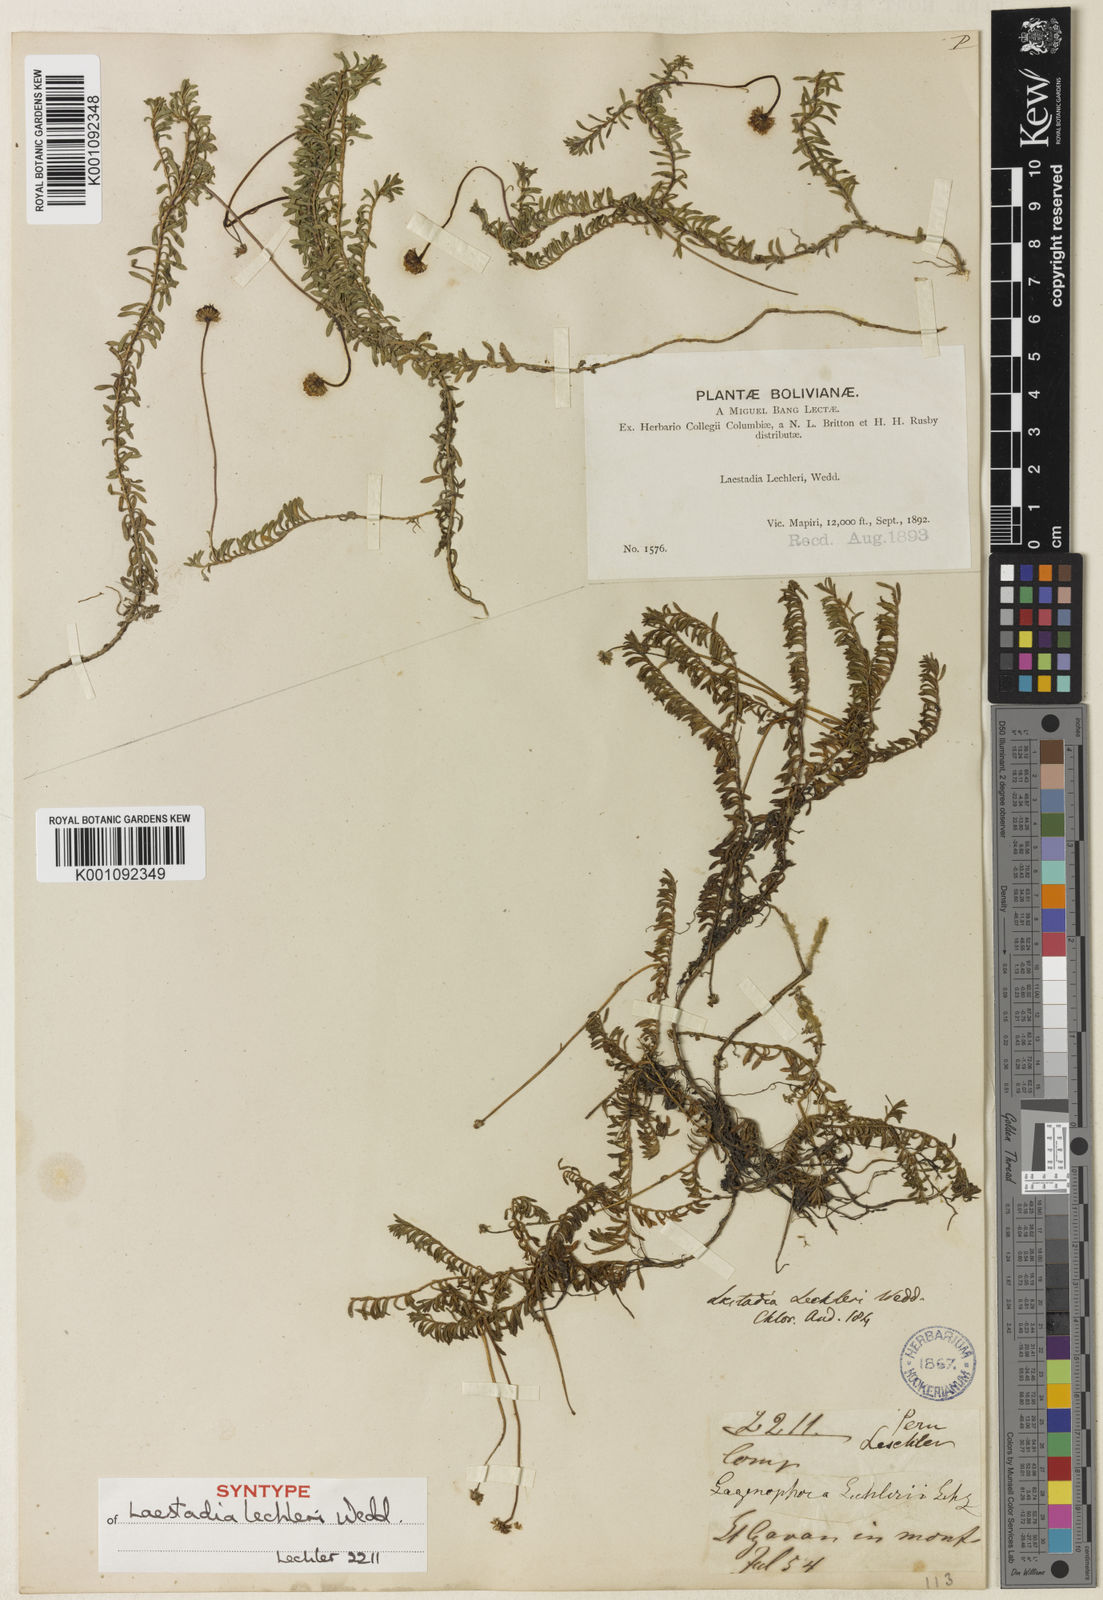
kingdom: Plantae
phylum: Tracheophyta
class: Magnoliopsida
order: Asterales
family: Asteraceae
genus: Laestadia
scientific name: Laestadia lechleri
